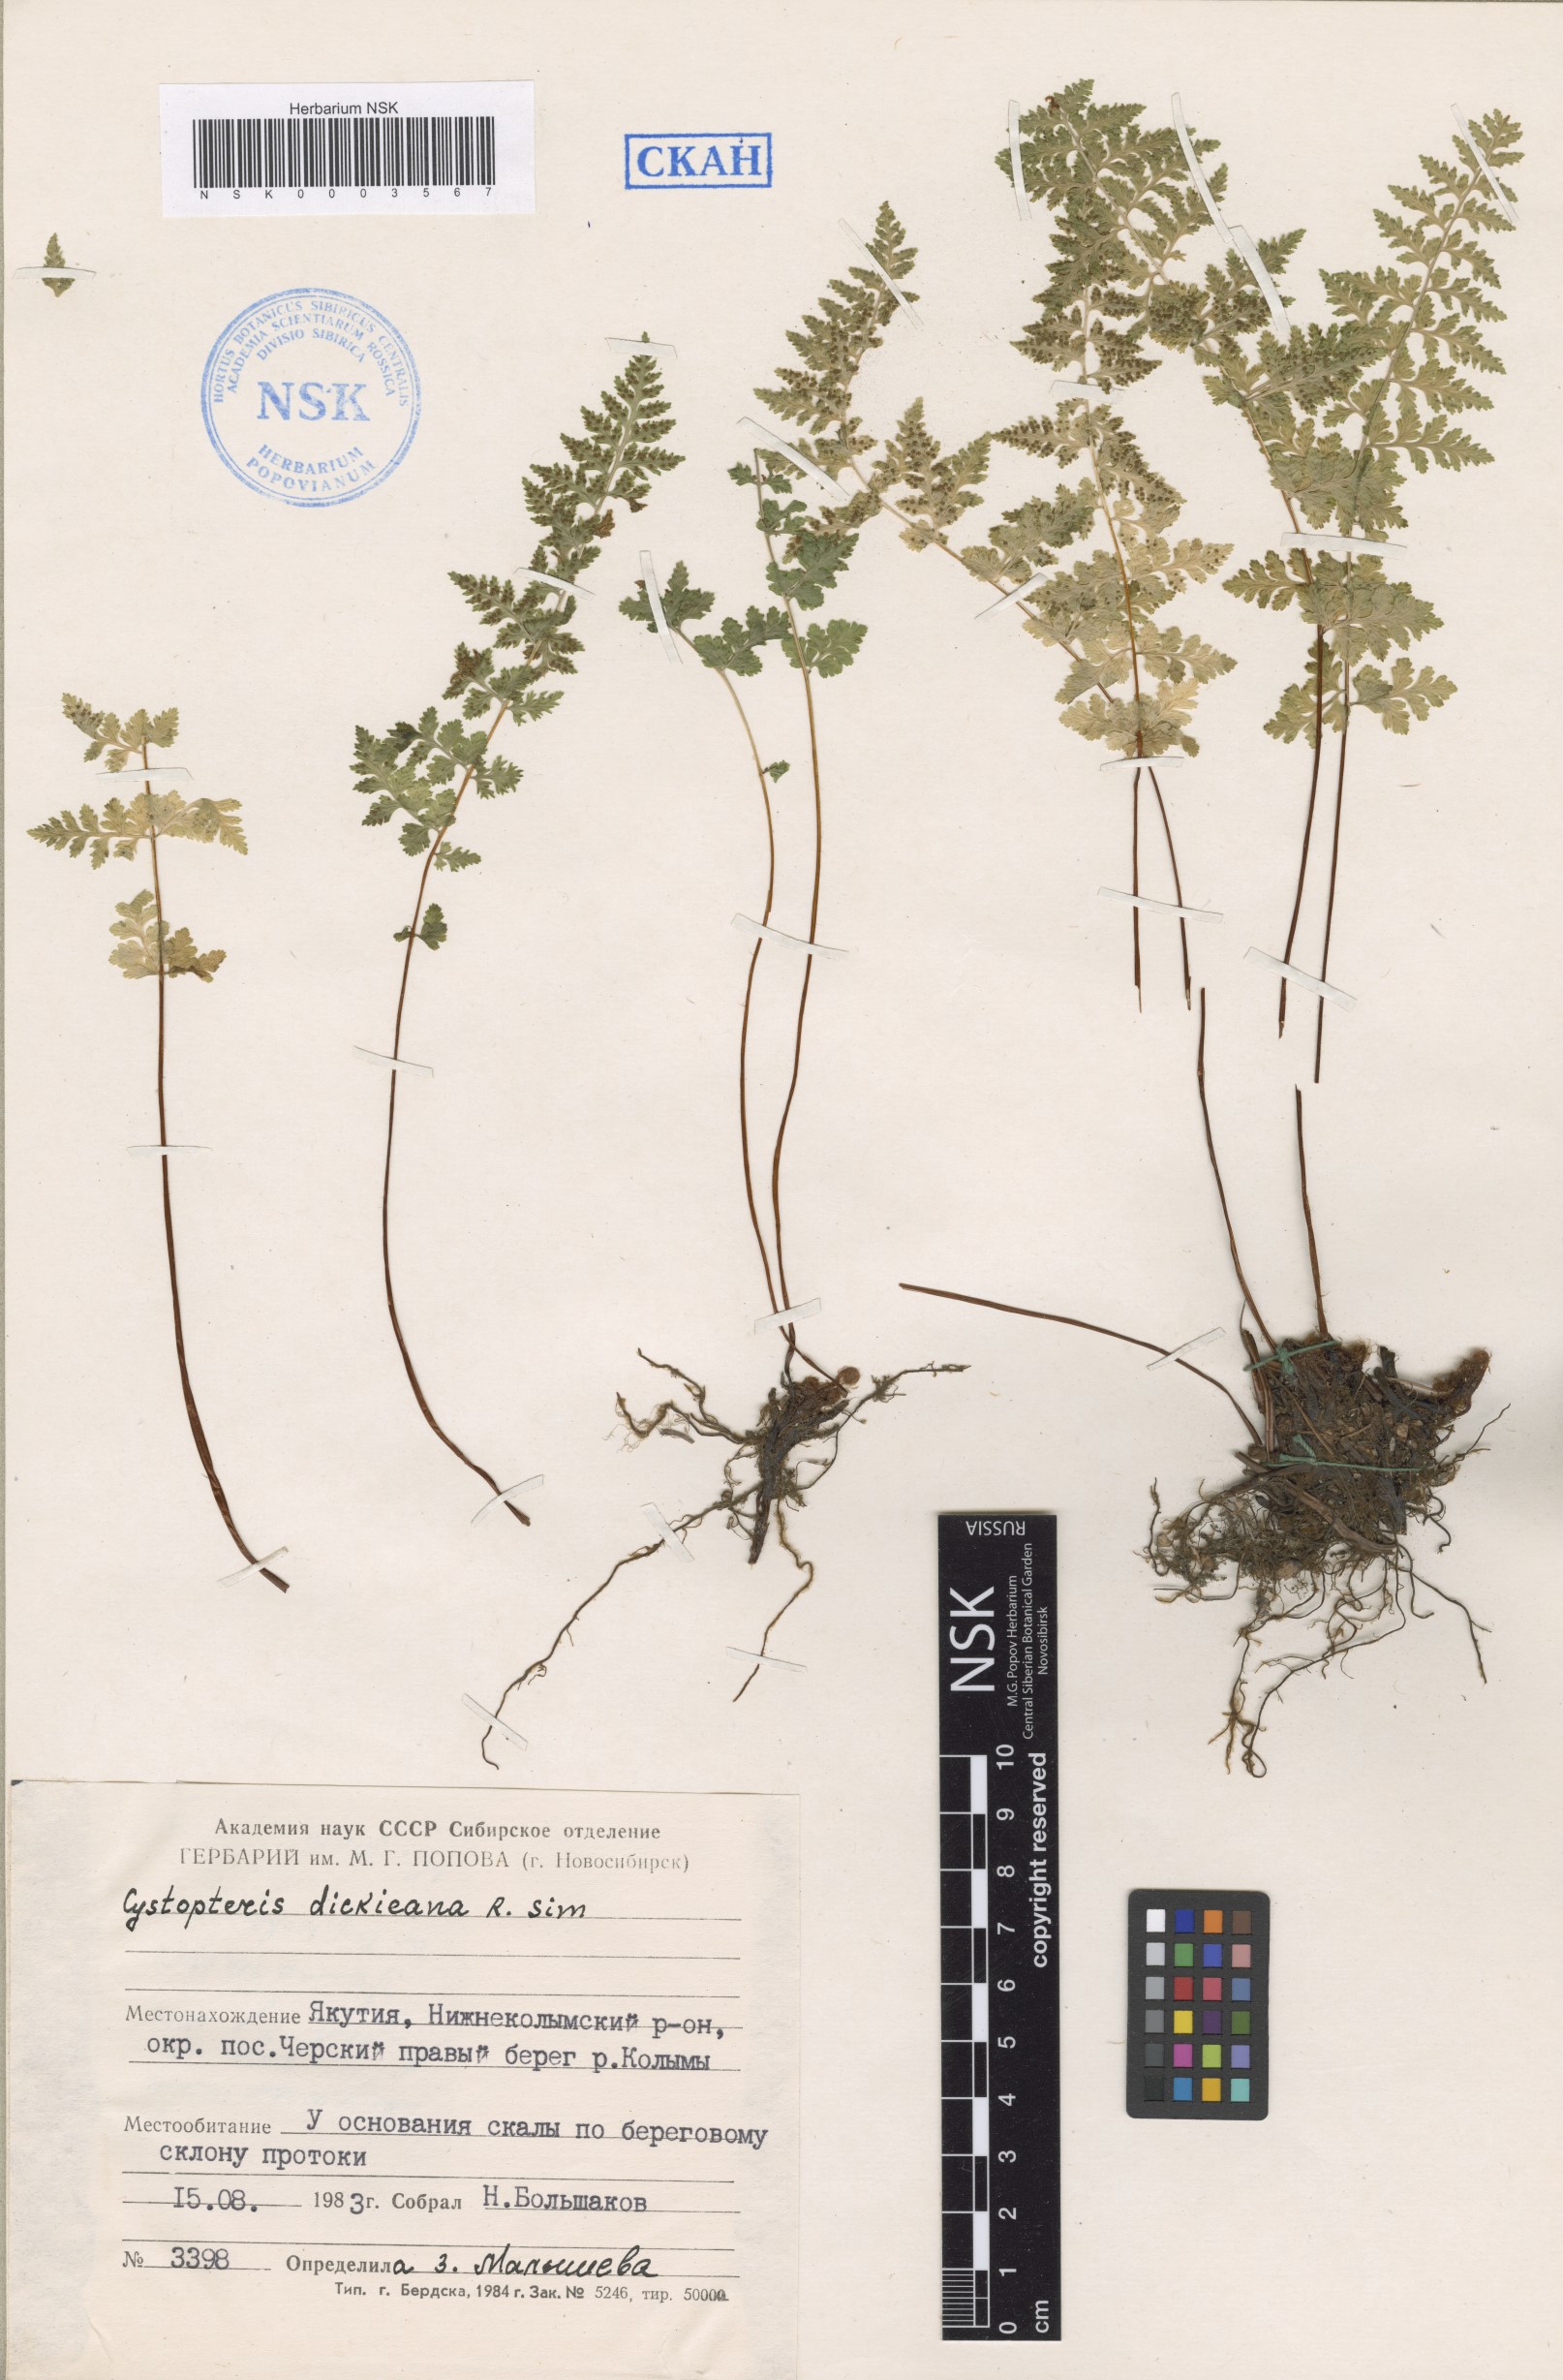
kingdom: Plantae
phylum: Tracheophyta
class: Polypodiopsida
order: Polypodiales
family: Cystopteridaceae
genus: Cystopteris
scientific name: Cystopteris dickieana
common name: Dickie's bladder-fern
